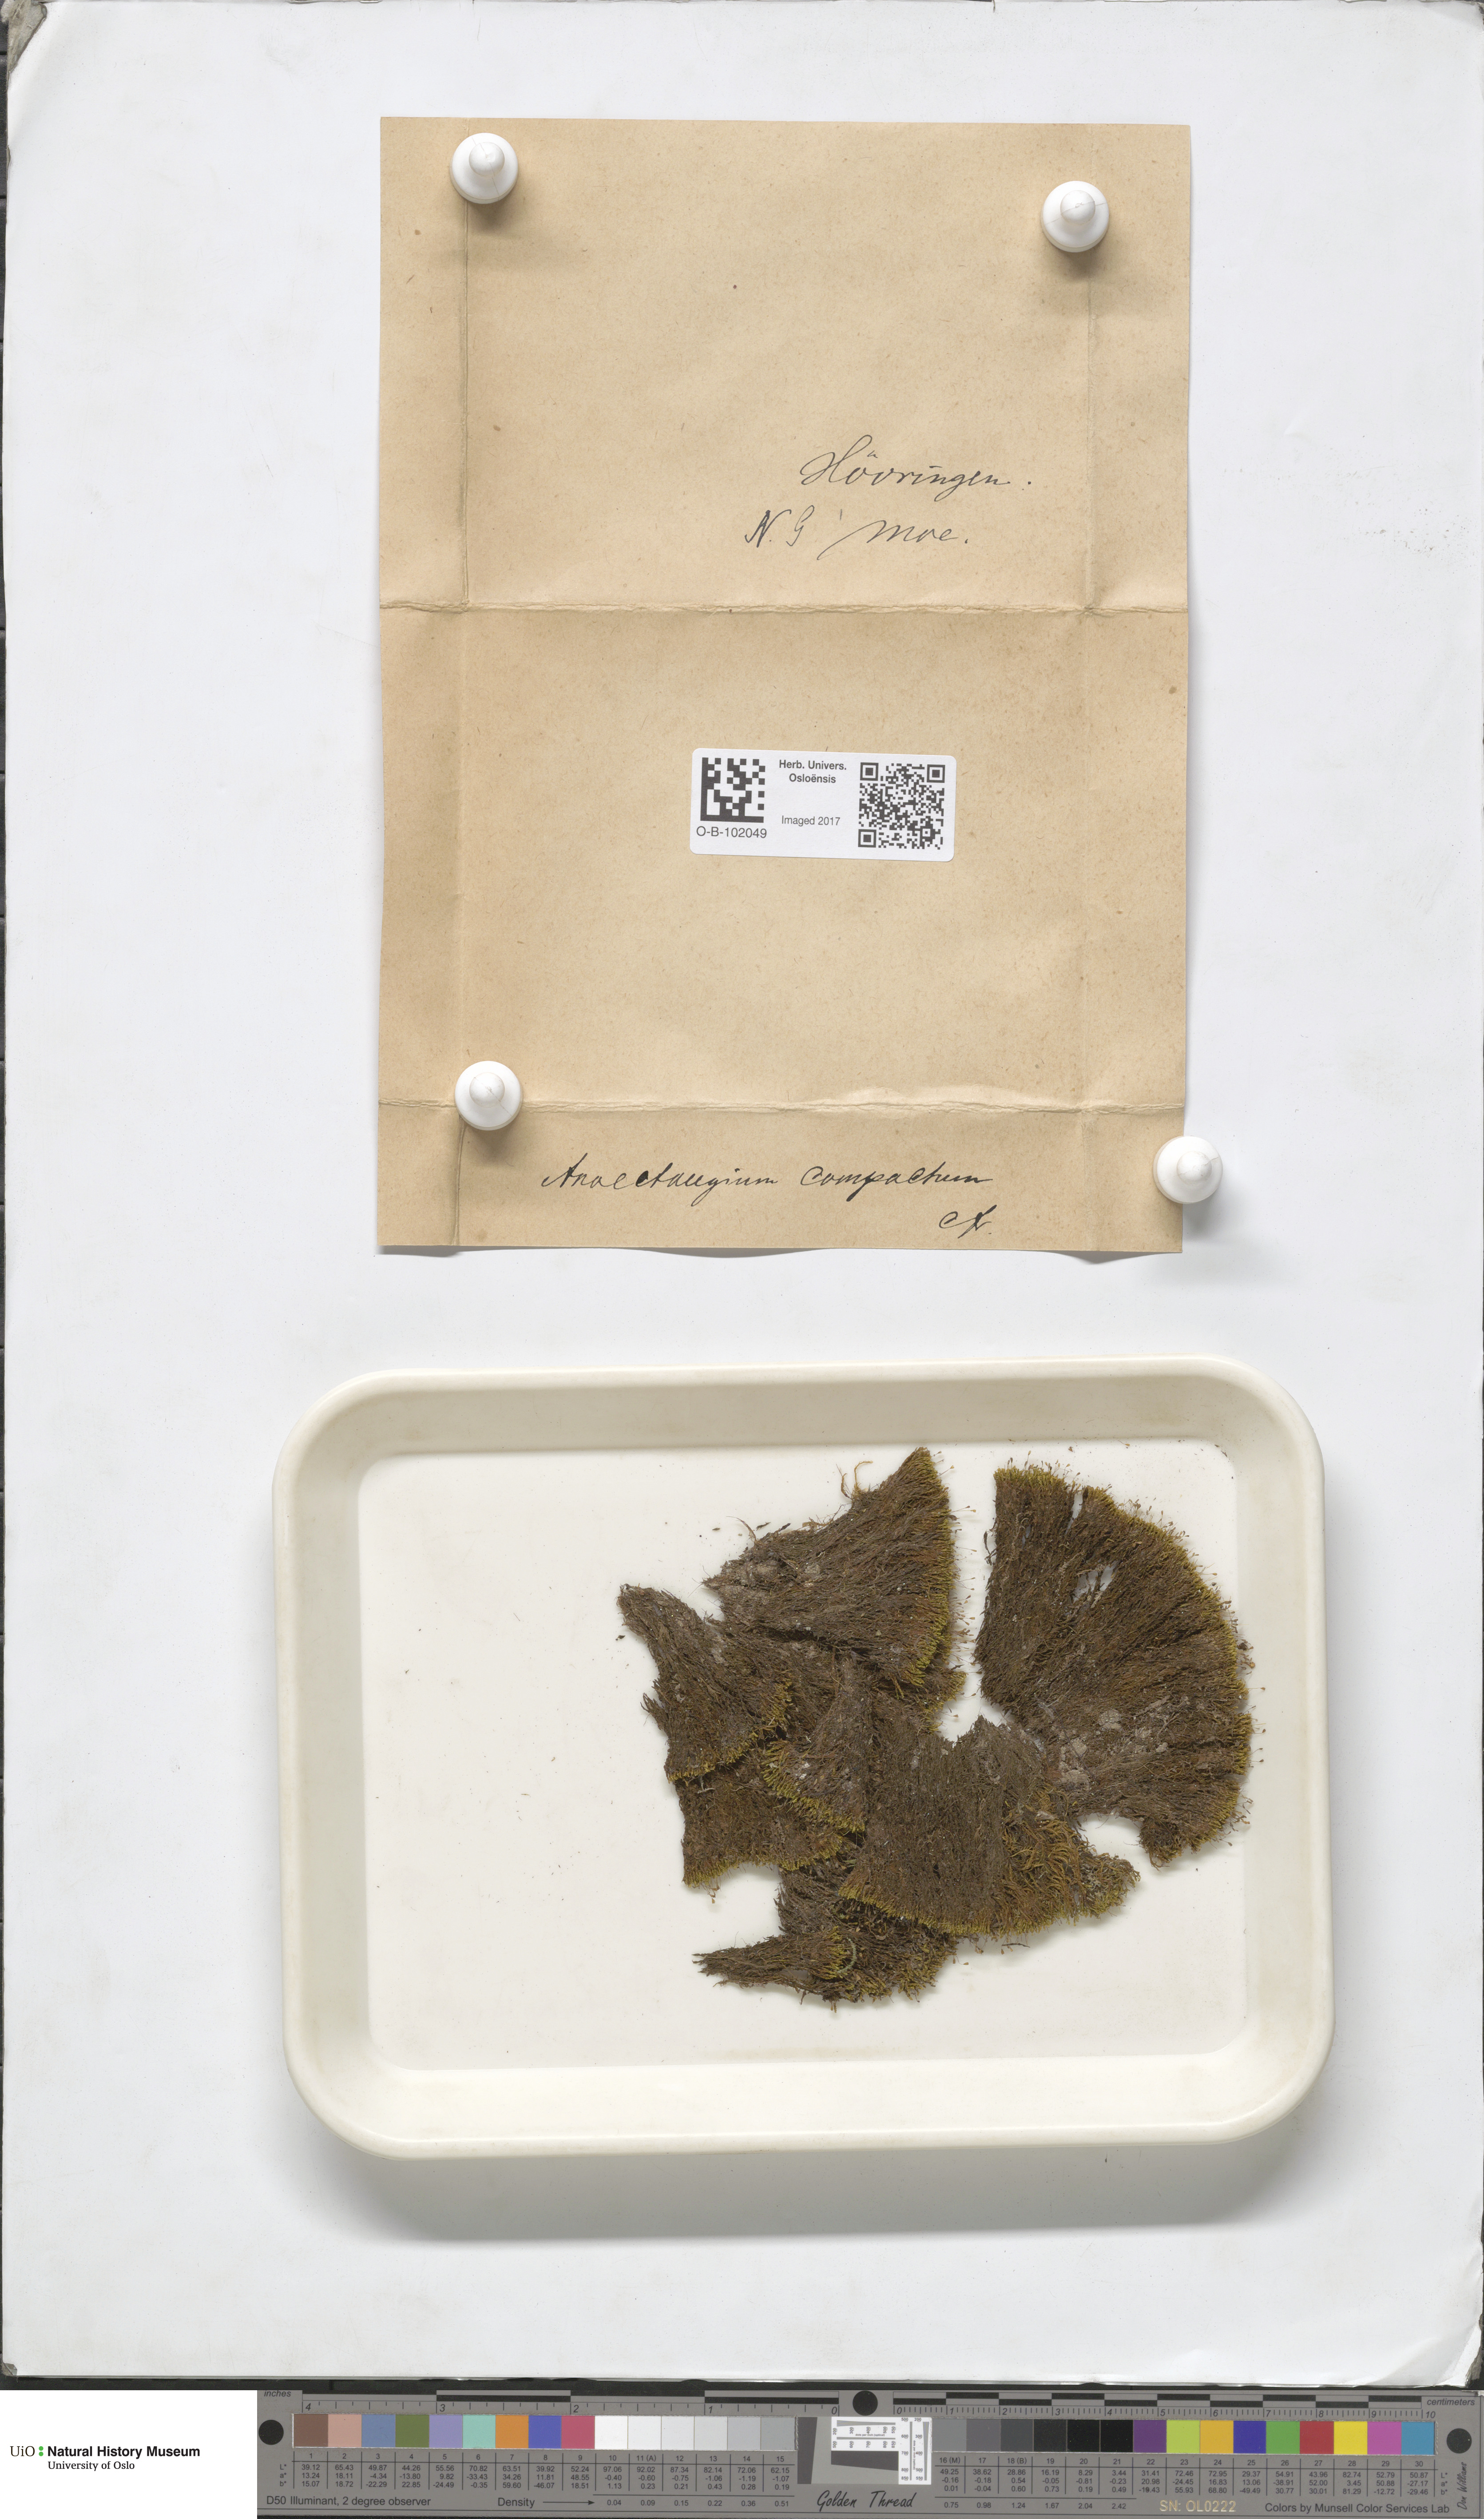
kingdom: Plantae
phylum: Bryophyta
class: Bryopsida
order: Pottiales
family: Pottiaceae
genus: Anoectangium
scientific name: Anoectangium aestivum
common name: Summer-moss
